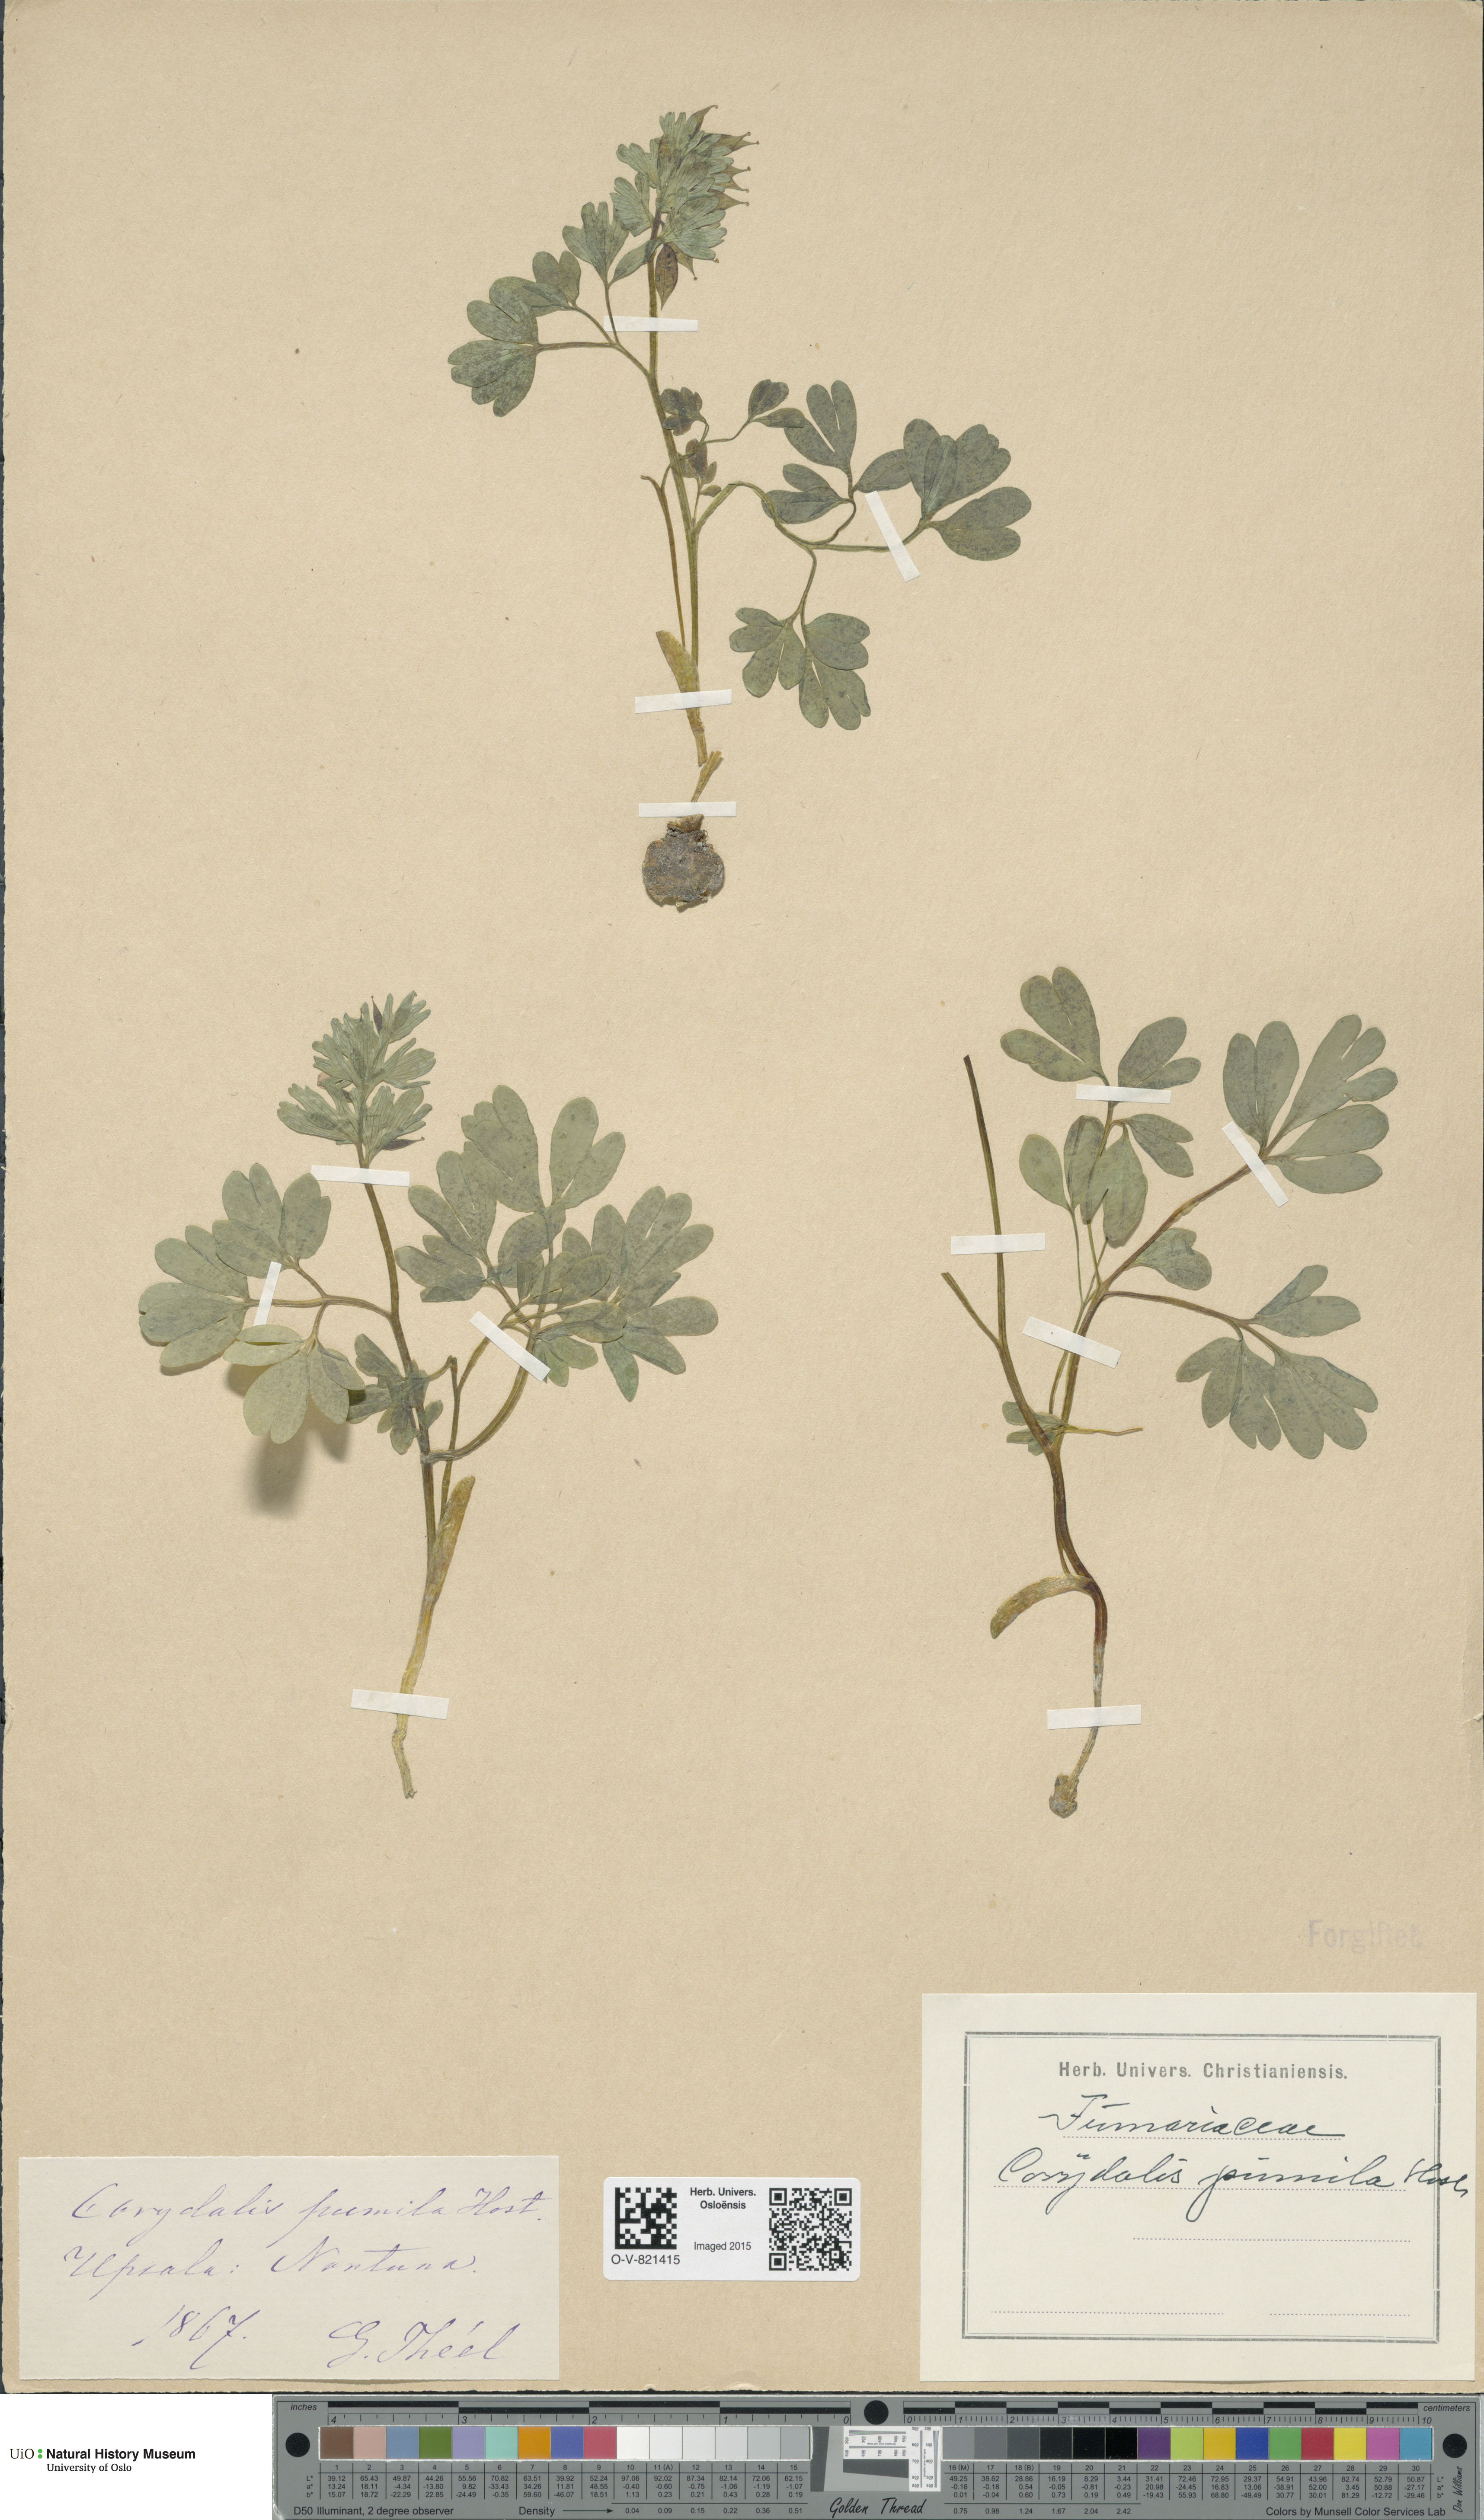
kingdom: Plantae
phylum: Tracheophyta
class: Magnoliopsida
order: Ranunculales
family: Papaveraceae
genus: Corydalis
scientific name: Corydalis pumila
